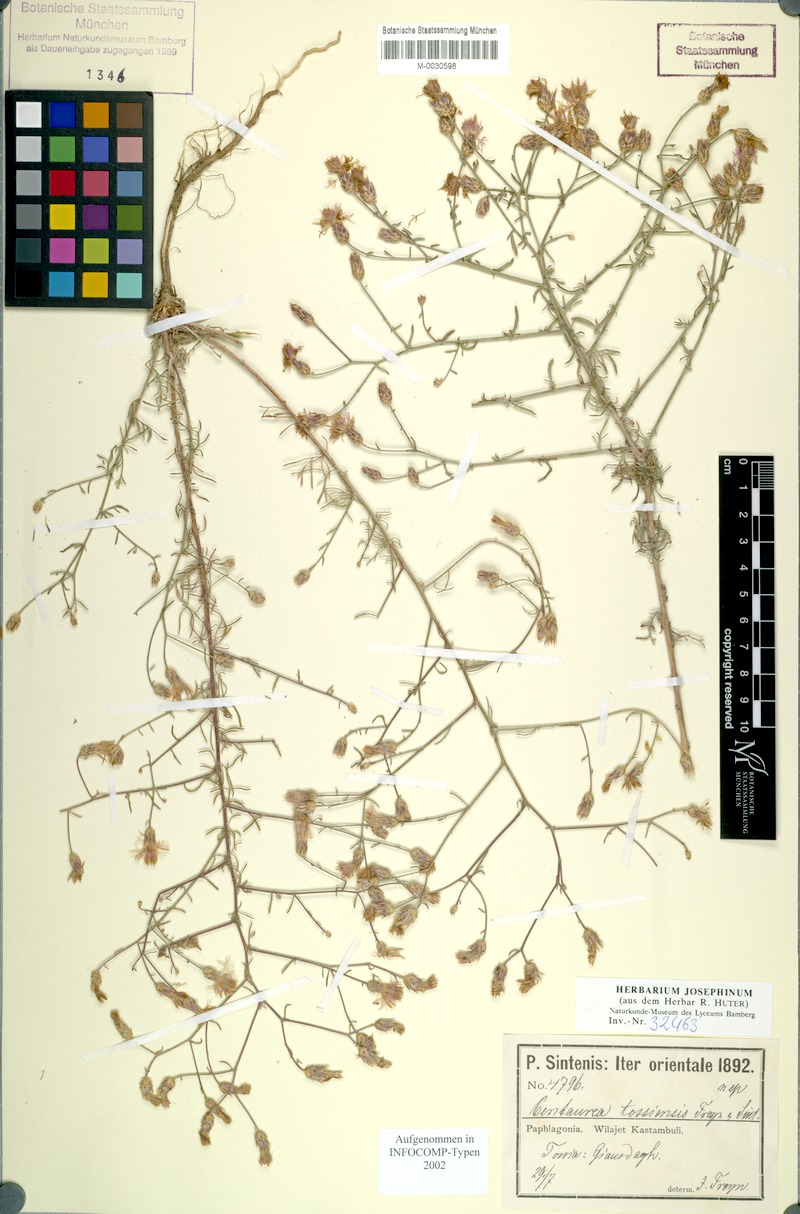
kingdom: Plantae
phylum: Tracheophyta
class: Magnoliopsida
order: Asterales
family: Asteraceae
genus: Centaurea
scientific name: Centaurea tossiensis
